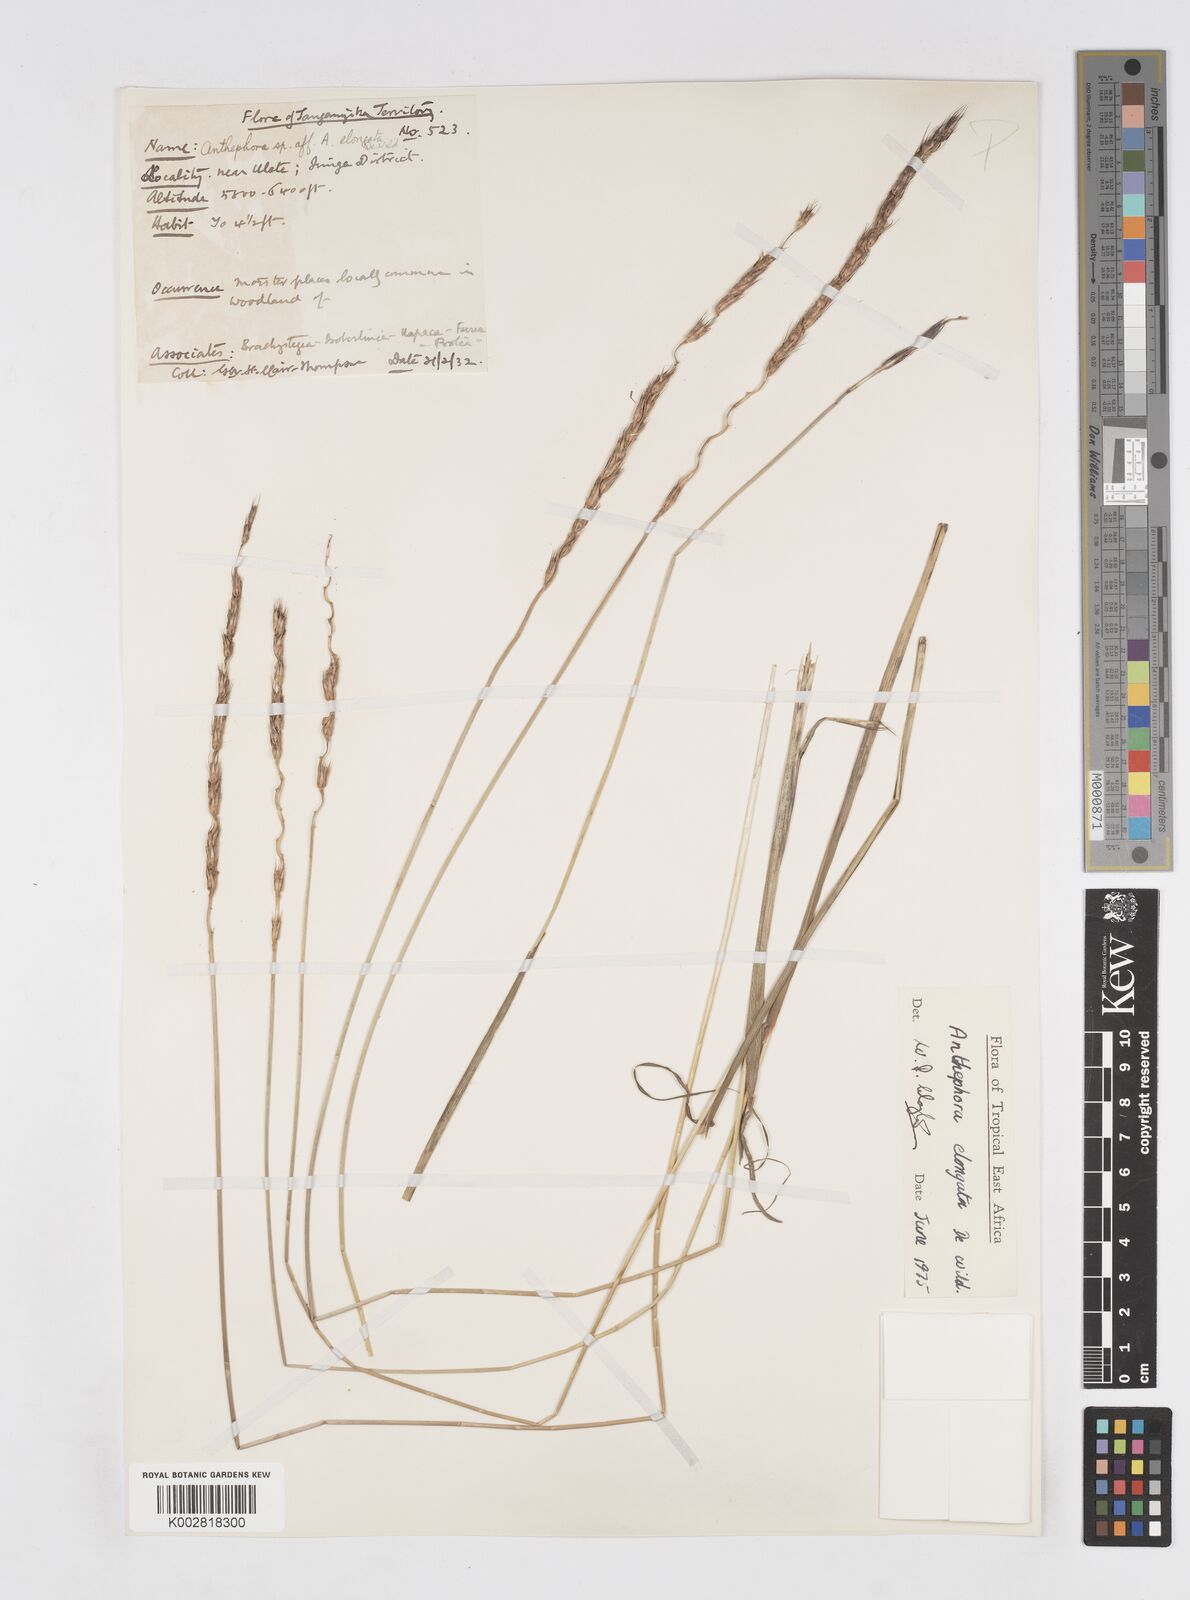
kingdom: Plantae
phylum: Tracheophyta
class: Liliopsida
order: Poales
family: Poaceae
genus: Anthephora
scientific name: Anthephora elongata
